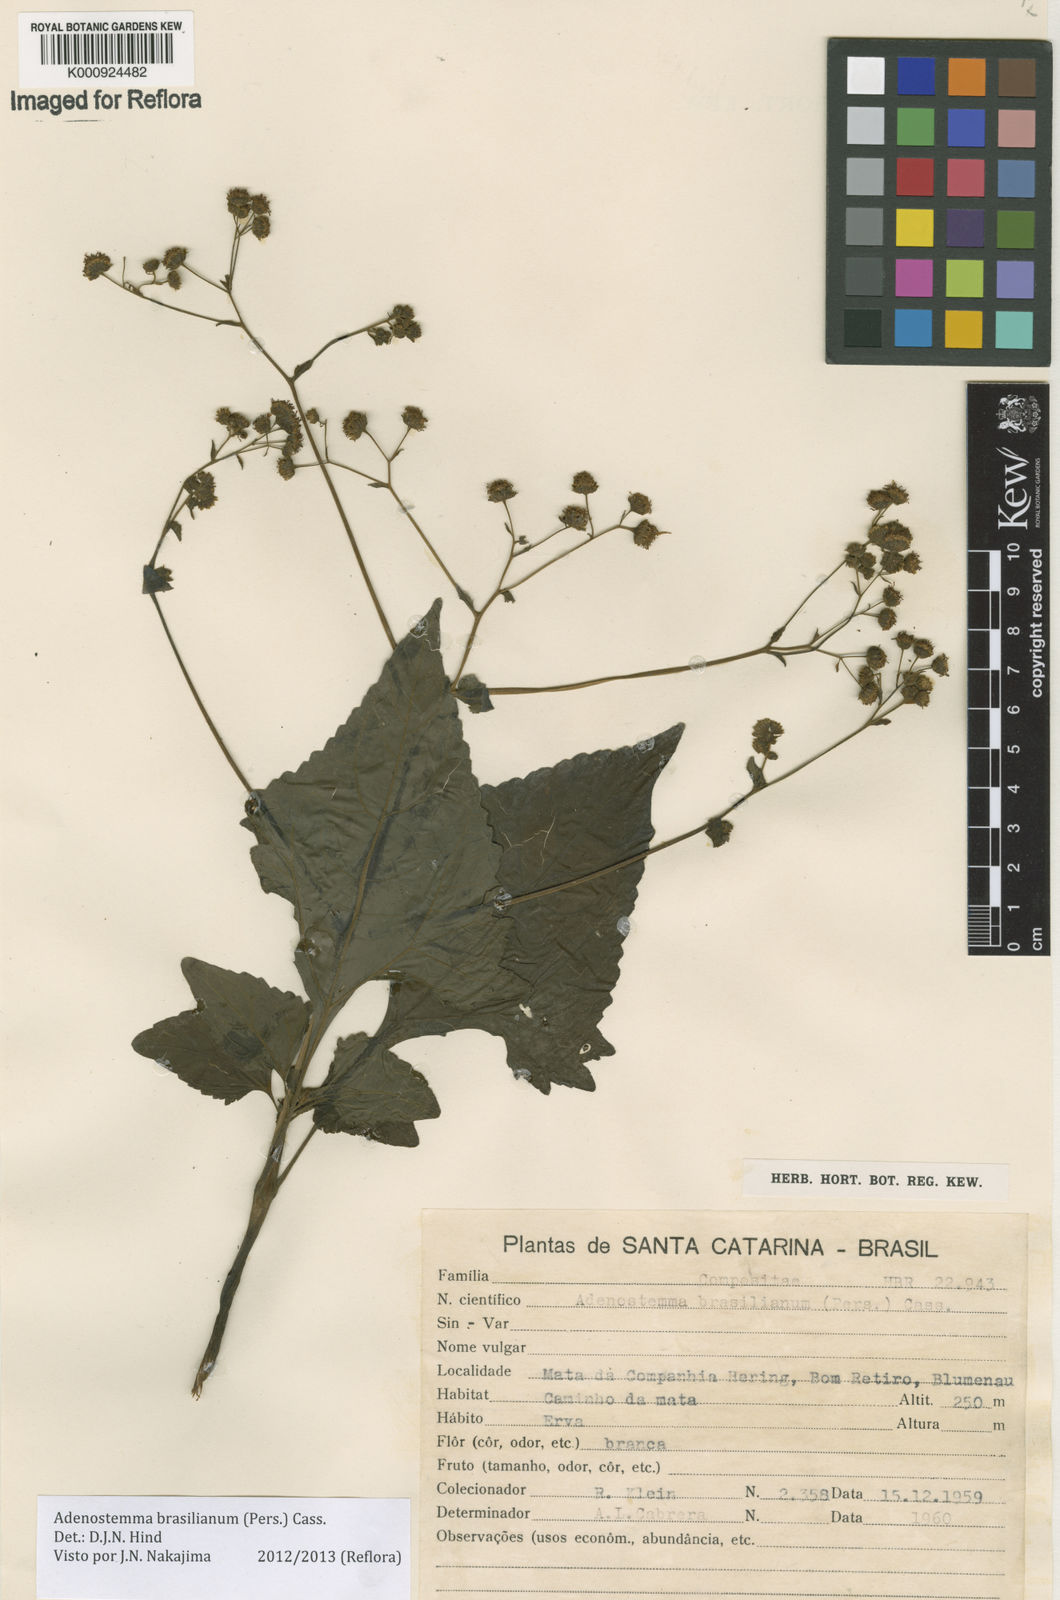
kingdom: Plantae
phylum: Tracheophyta
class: Magnoliopsida
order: Asterales
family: Asteraceae
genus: Adenostemma
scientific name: Adenostemma
